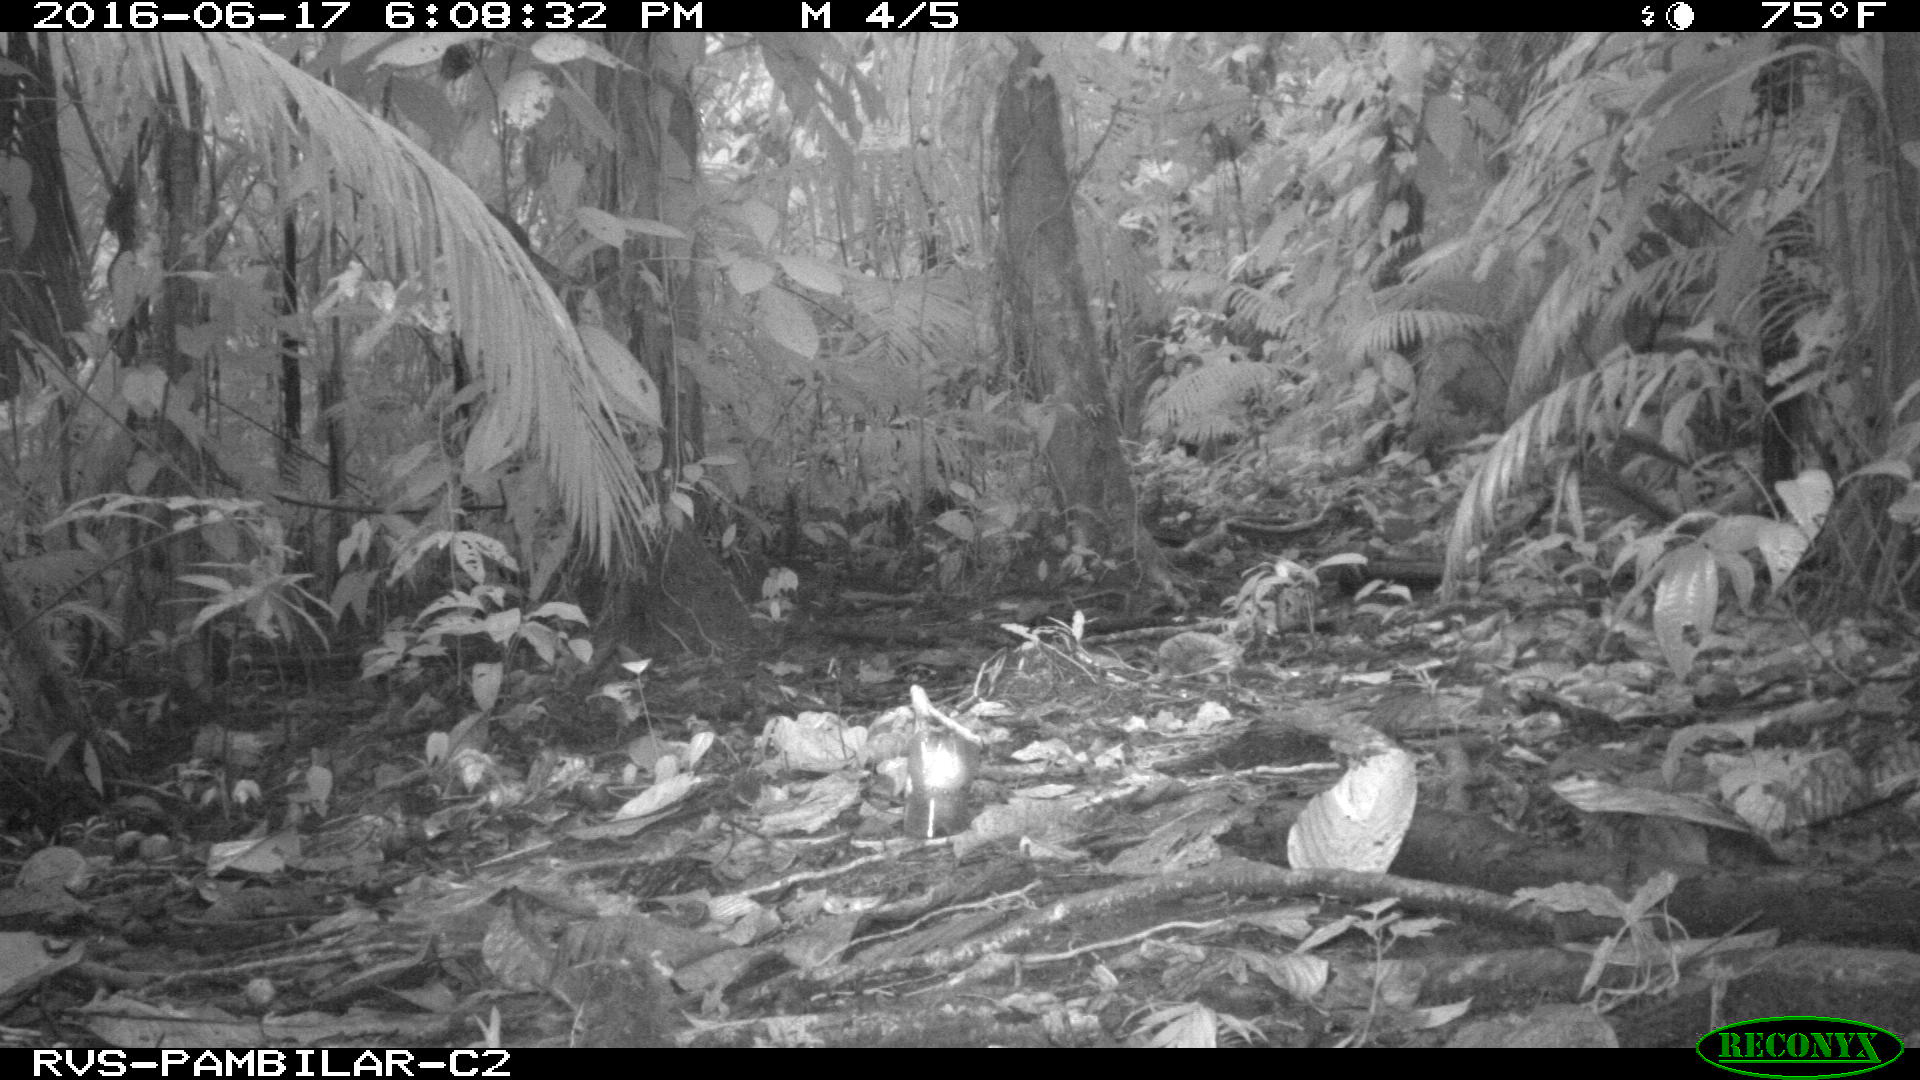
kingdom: Animalia
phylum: Chordata
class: Mammalia
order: Rodentia
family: Dasyproctidae
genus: Dasyprocta
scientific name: Dasyprocta punctata
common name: Central american agouti
